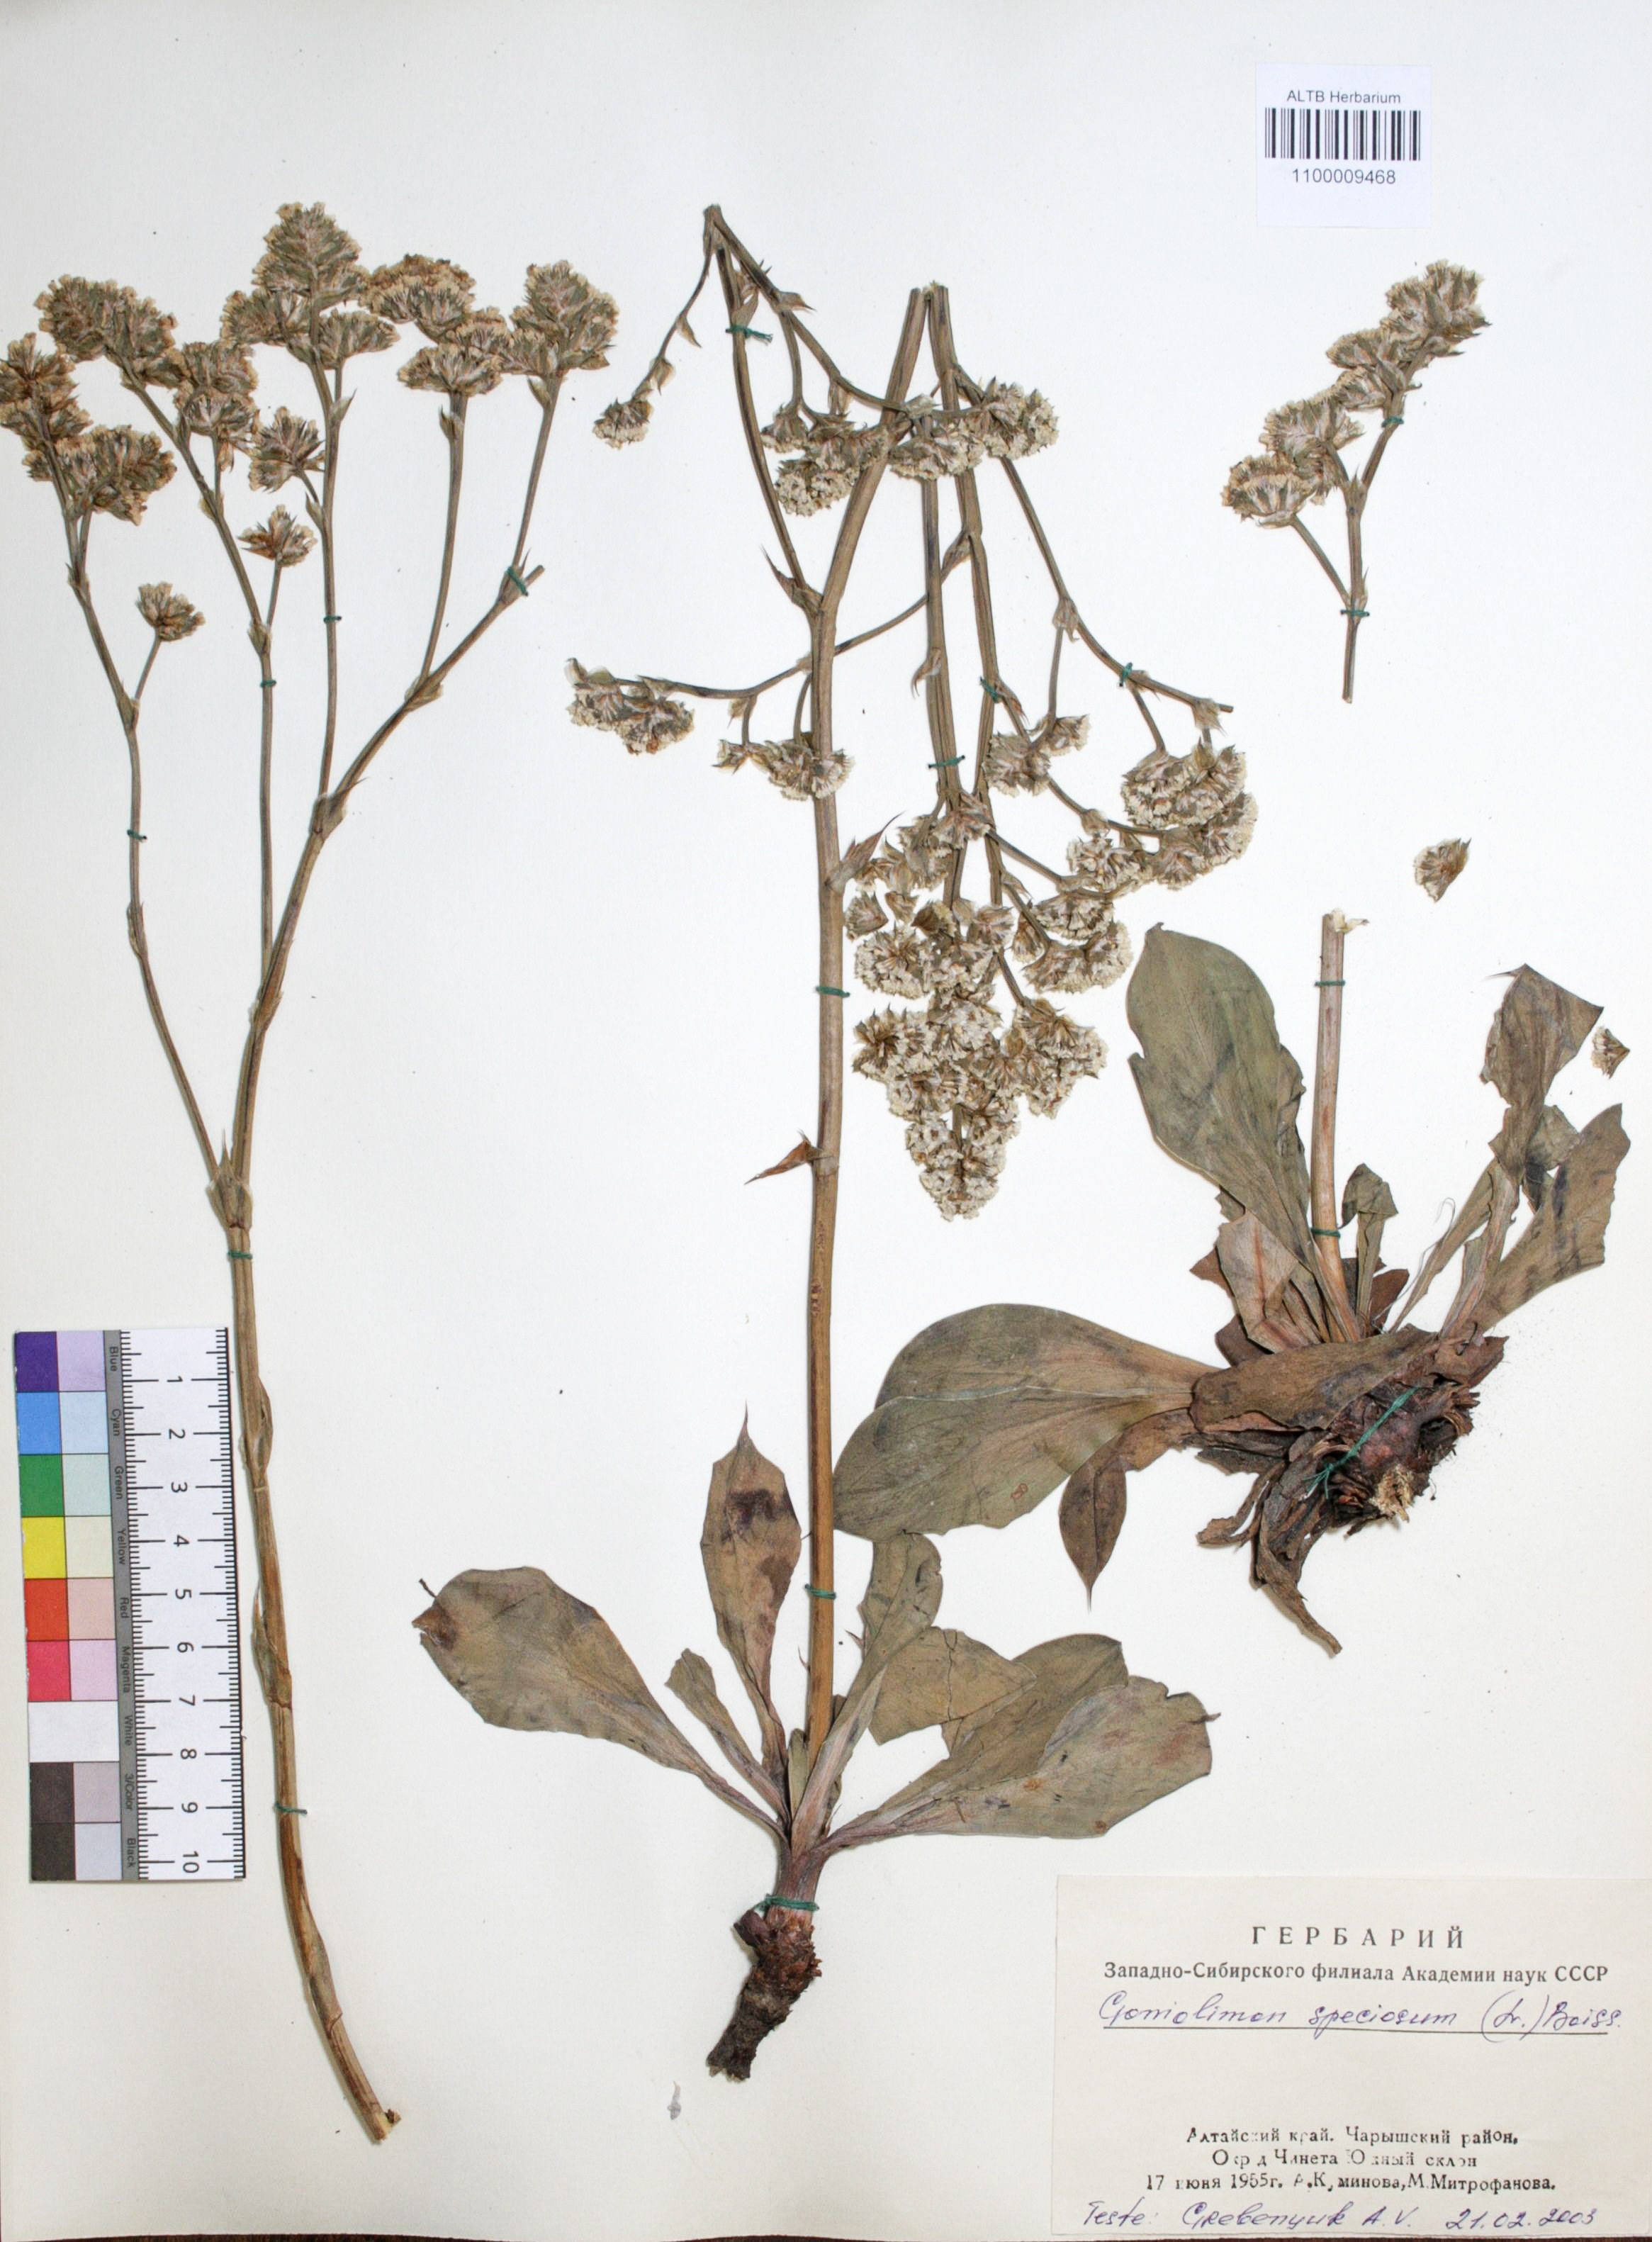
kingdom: Plantae
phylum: Tracheophyta
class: Magnoliopsida
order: Caryophyllales
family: Plumbaginaceae
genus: Goniolimon
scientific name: Goniolimon speciosum
